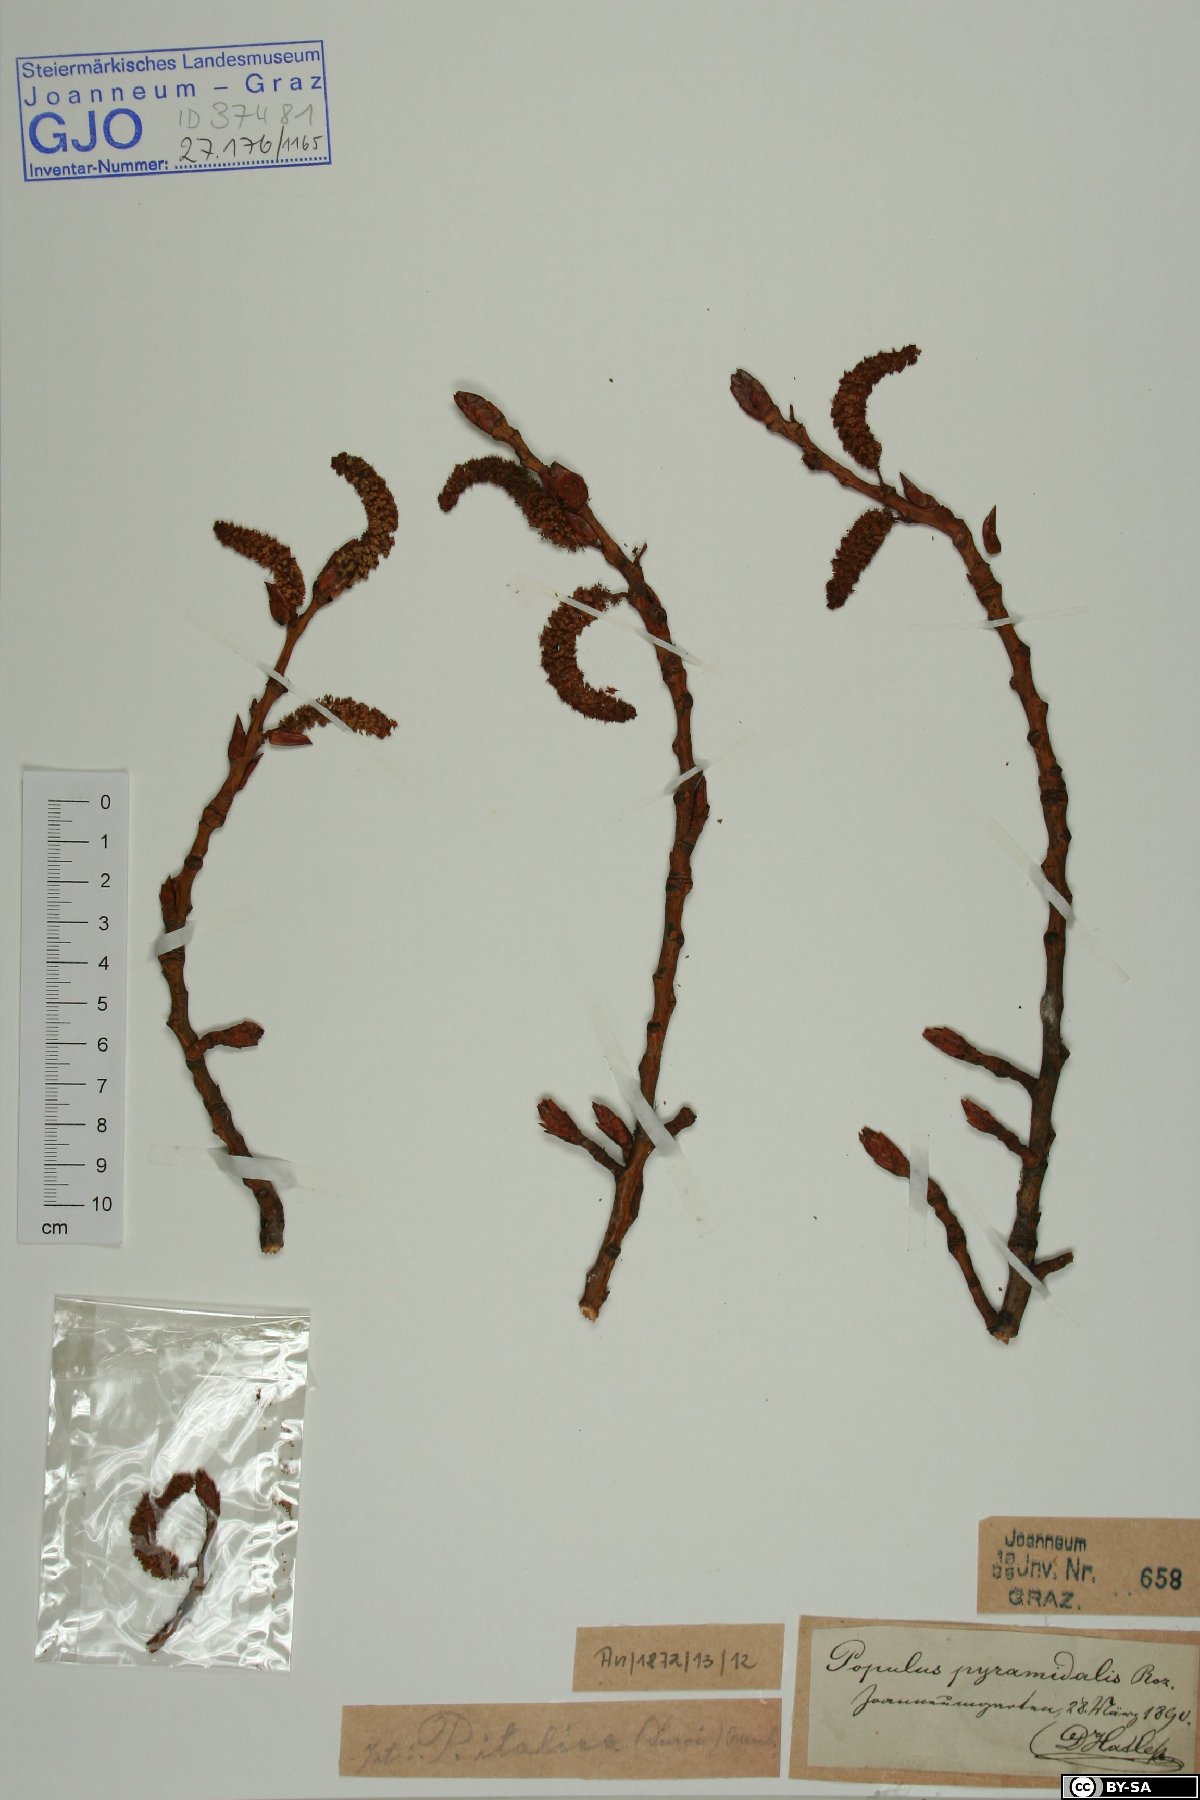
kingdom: Plantae
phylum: Tracheophyta
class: Magnoliopsida
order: Malpighiales
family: Salicaceae
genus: Populus
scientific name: Populus nigra
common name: Black poplar
